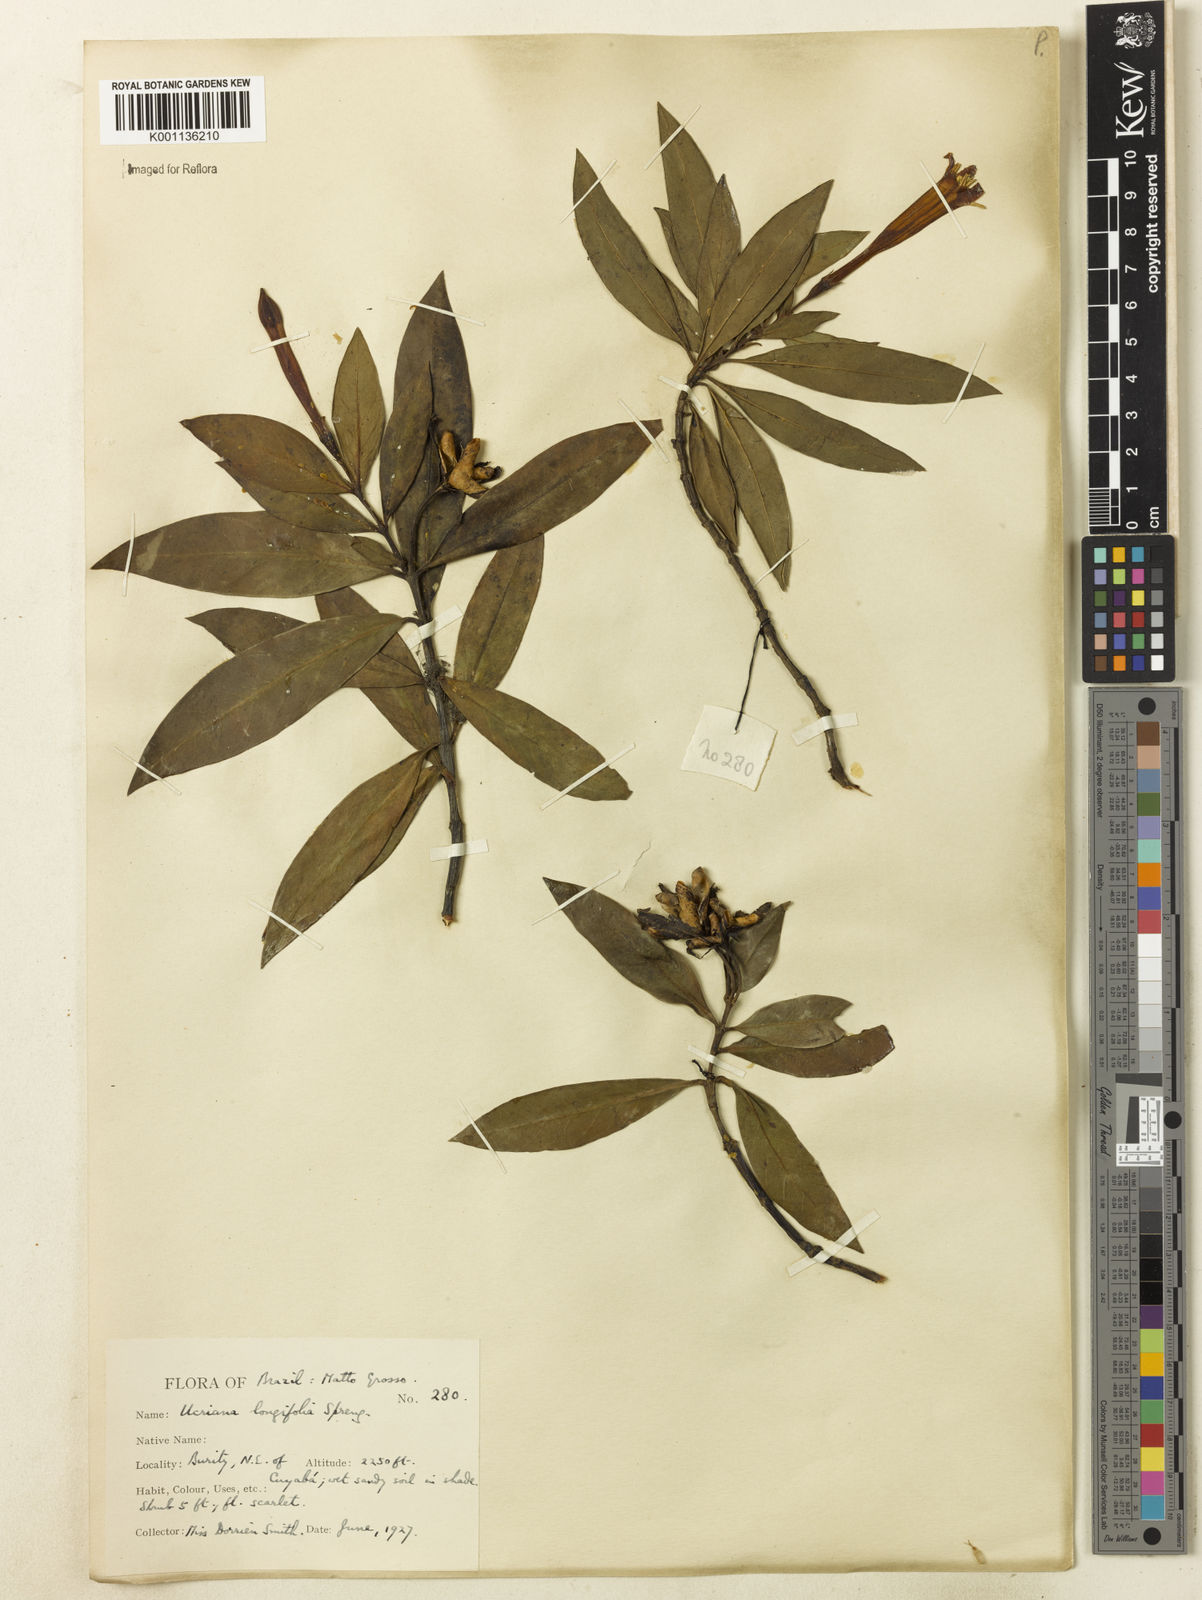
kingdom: Plantae
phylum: Tracheophyta
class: Magnoliopsida
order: Gentianales
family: Rubiaceae
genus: Augusta
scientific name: Augusta longifolia
